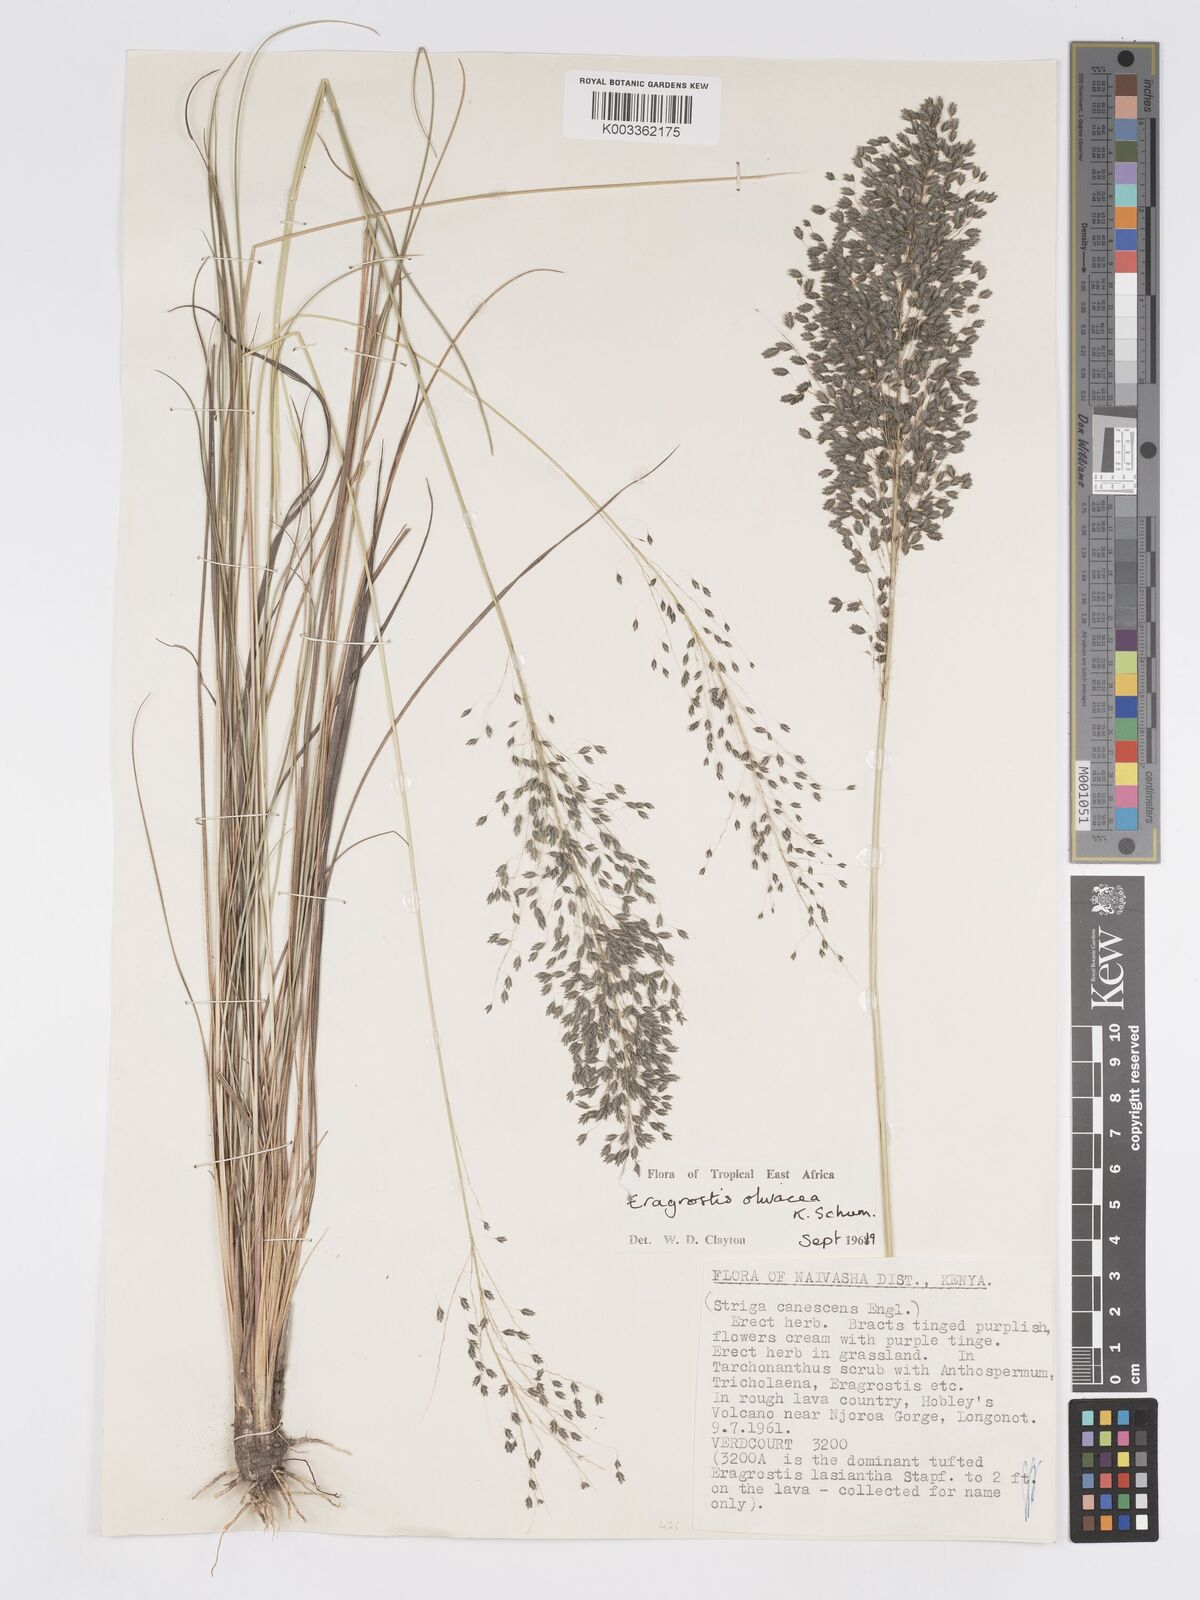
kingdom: Plantae
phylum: Tracheophyta
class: Liliopsida
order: Poales
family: Poaceae
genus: Eragrostis
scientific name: Eragrostis olivacea
